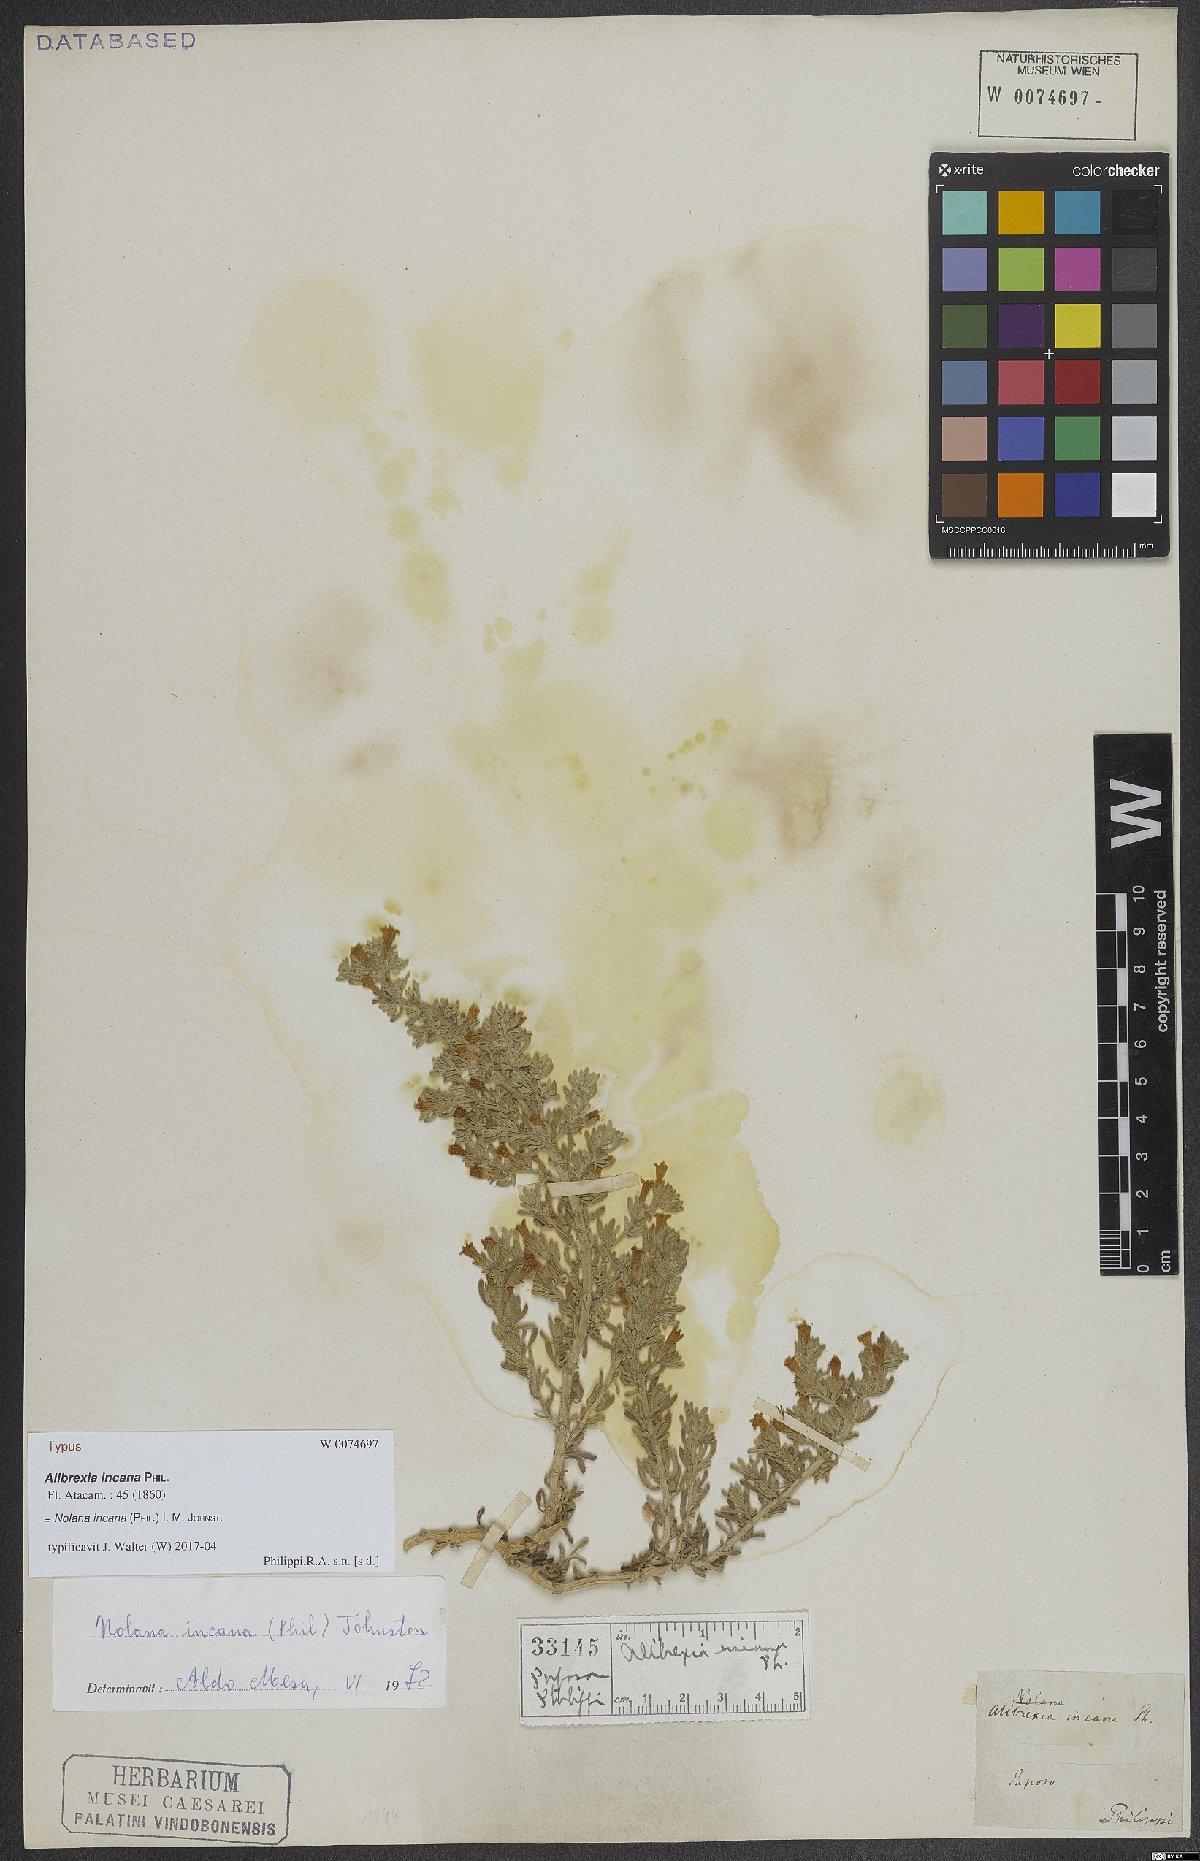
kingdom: Plantae
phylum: Tracheophyta
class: Magnoliopsida
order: Solanales
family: Solanaceae
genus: Nolana
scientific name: Nolana incana
